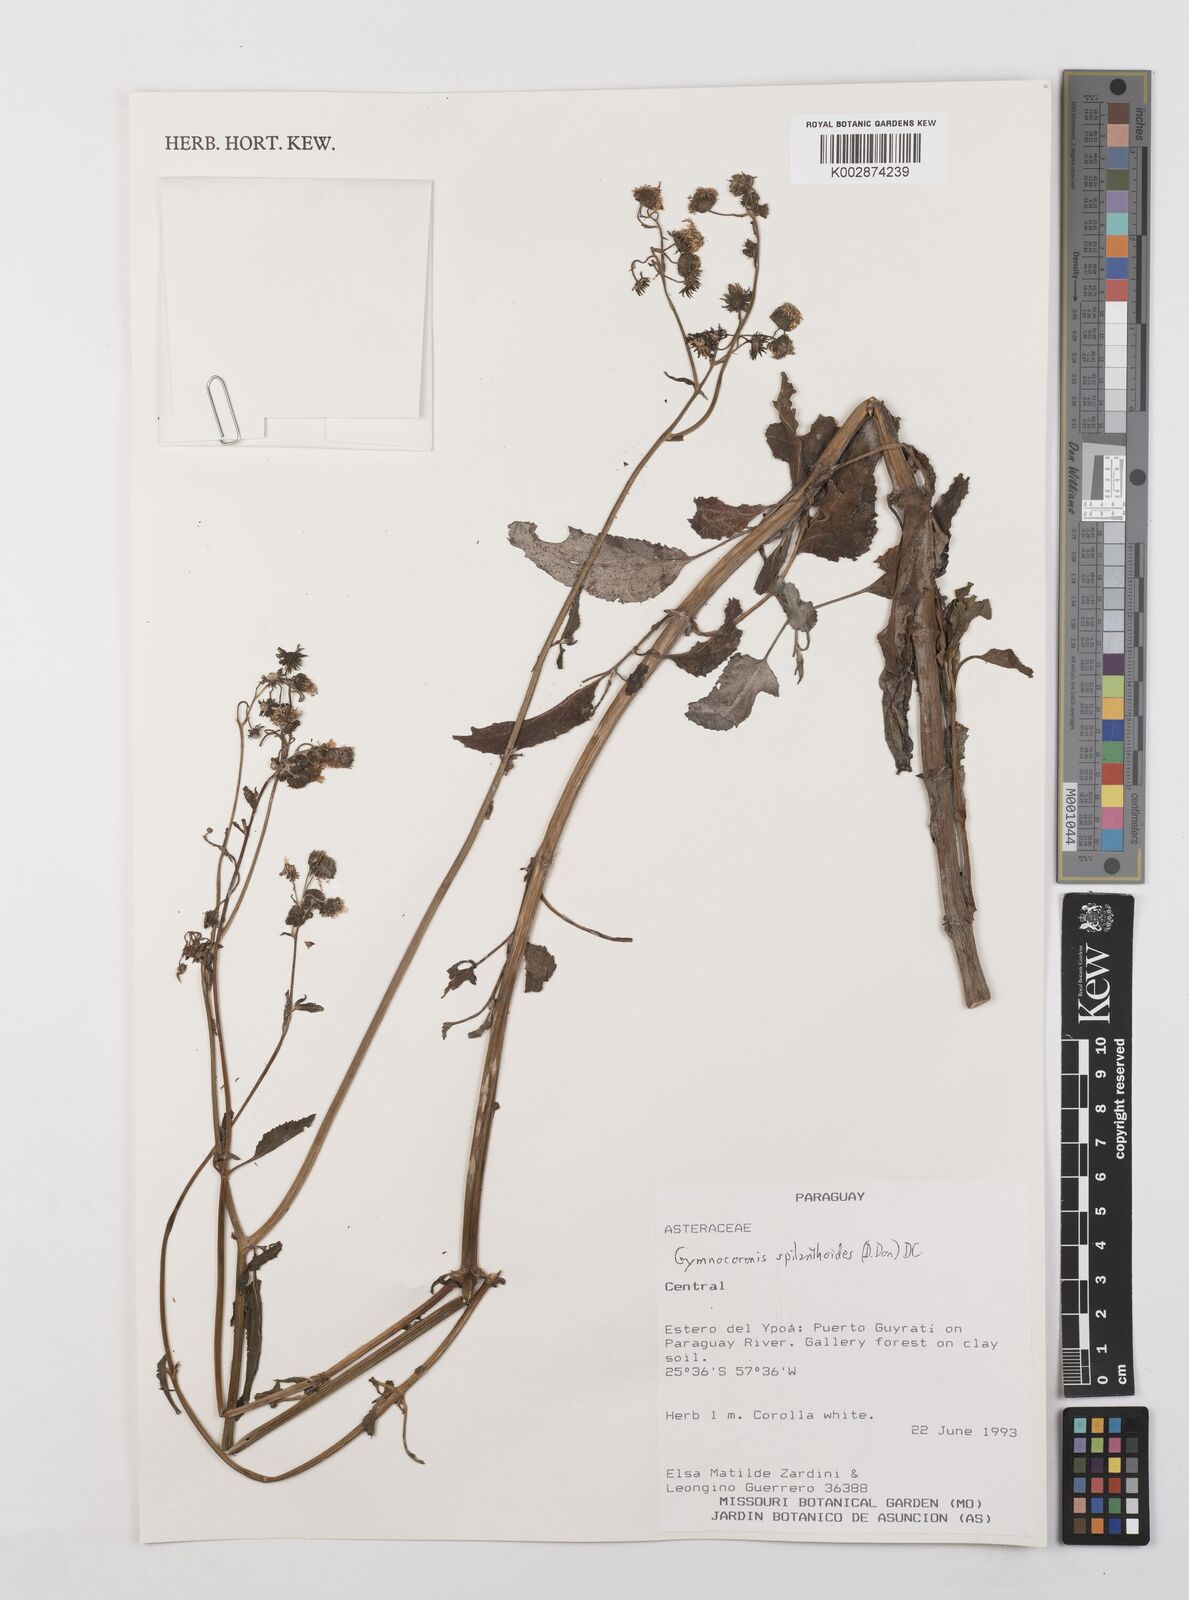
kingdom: Plantae
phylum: Tracheophyta
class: Magnoliopsida
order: Asterales
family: Asteraceae
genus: Gymnocoronis
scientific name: Gymnocoronis spilanthoides
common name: Senegal teaplant
